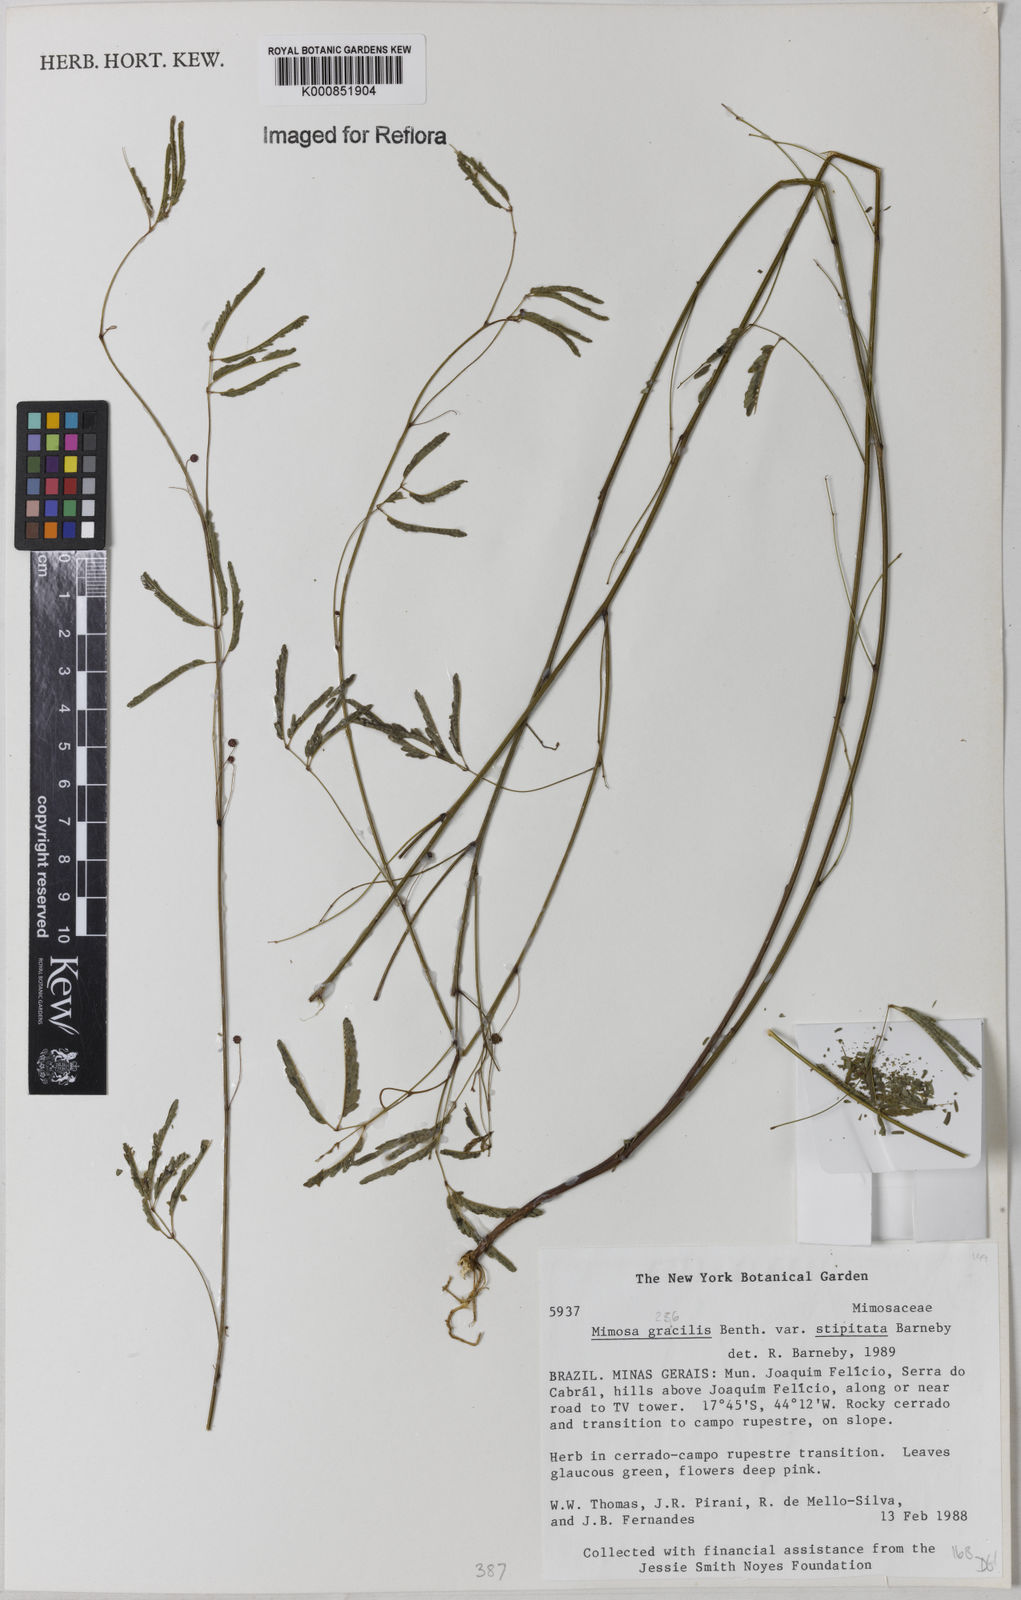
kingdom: Plantae
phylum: Tracheophyta
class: Magnoliopsida
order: Fabales
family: Fabaceae
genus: Mimosa
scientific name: Mimosa gracilis
